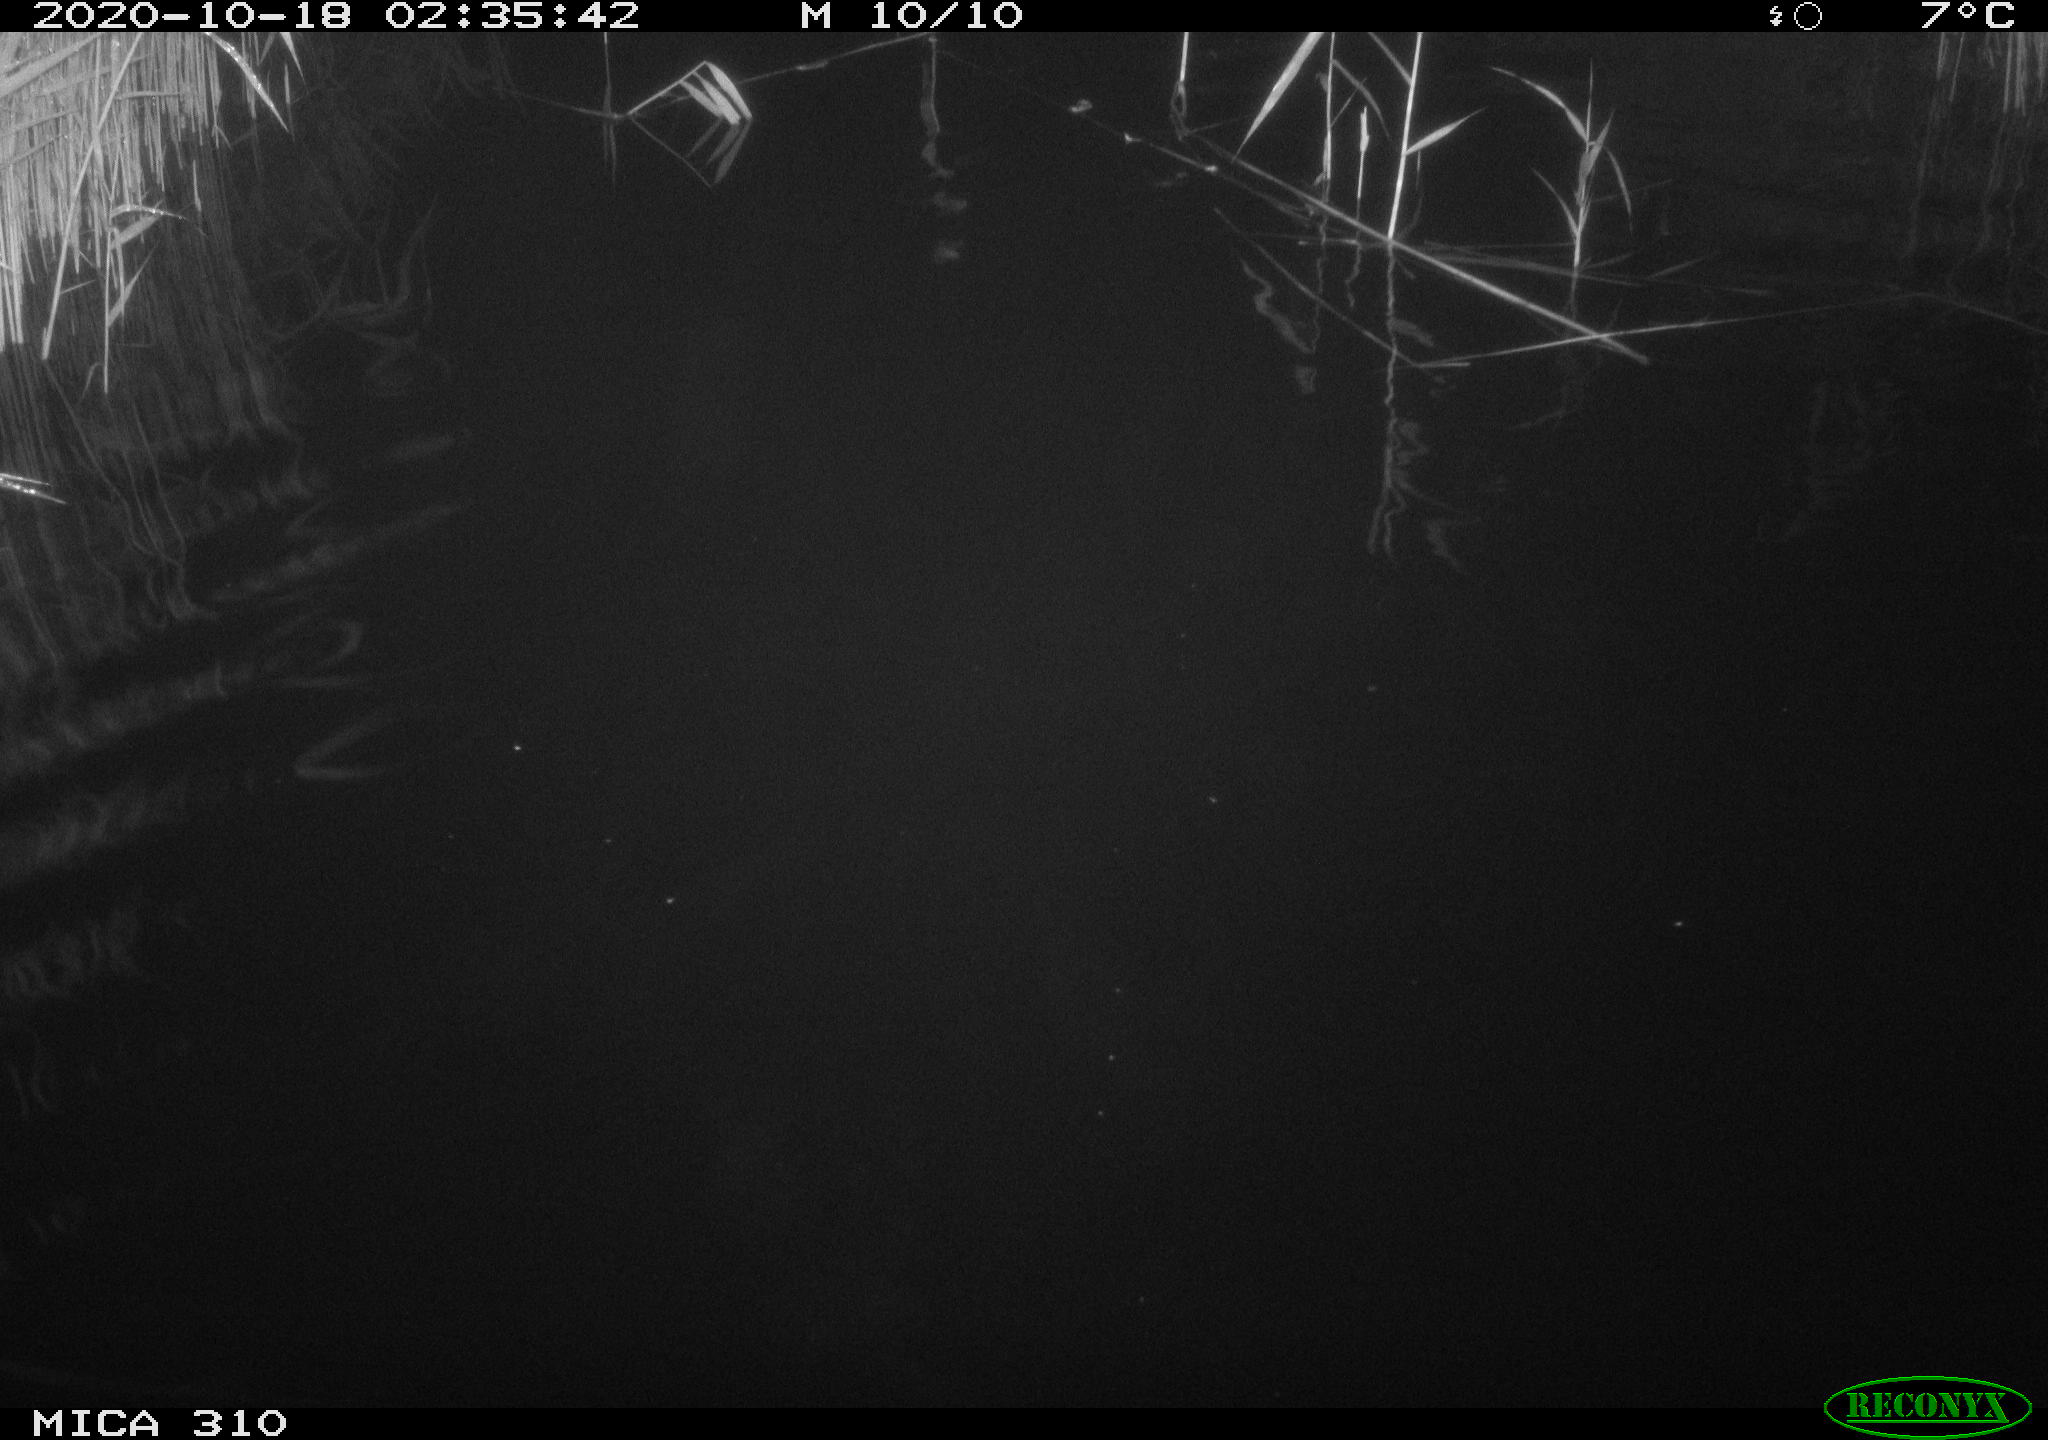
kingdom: Animalia
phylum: Chordata
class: Mammalia
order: Rodentia
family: Cricetidae
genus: Ondatra
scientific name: Ondatra zibethicus
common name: Muskrat
